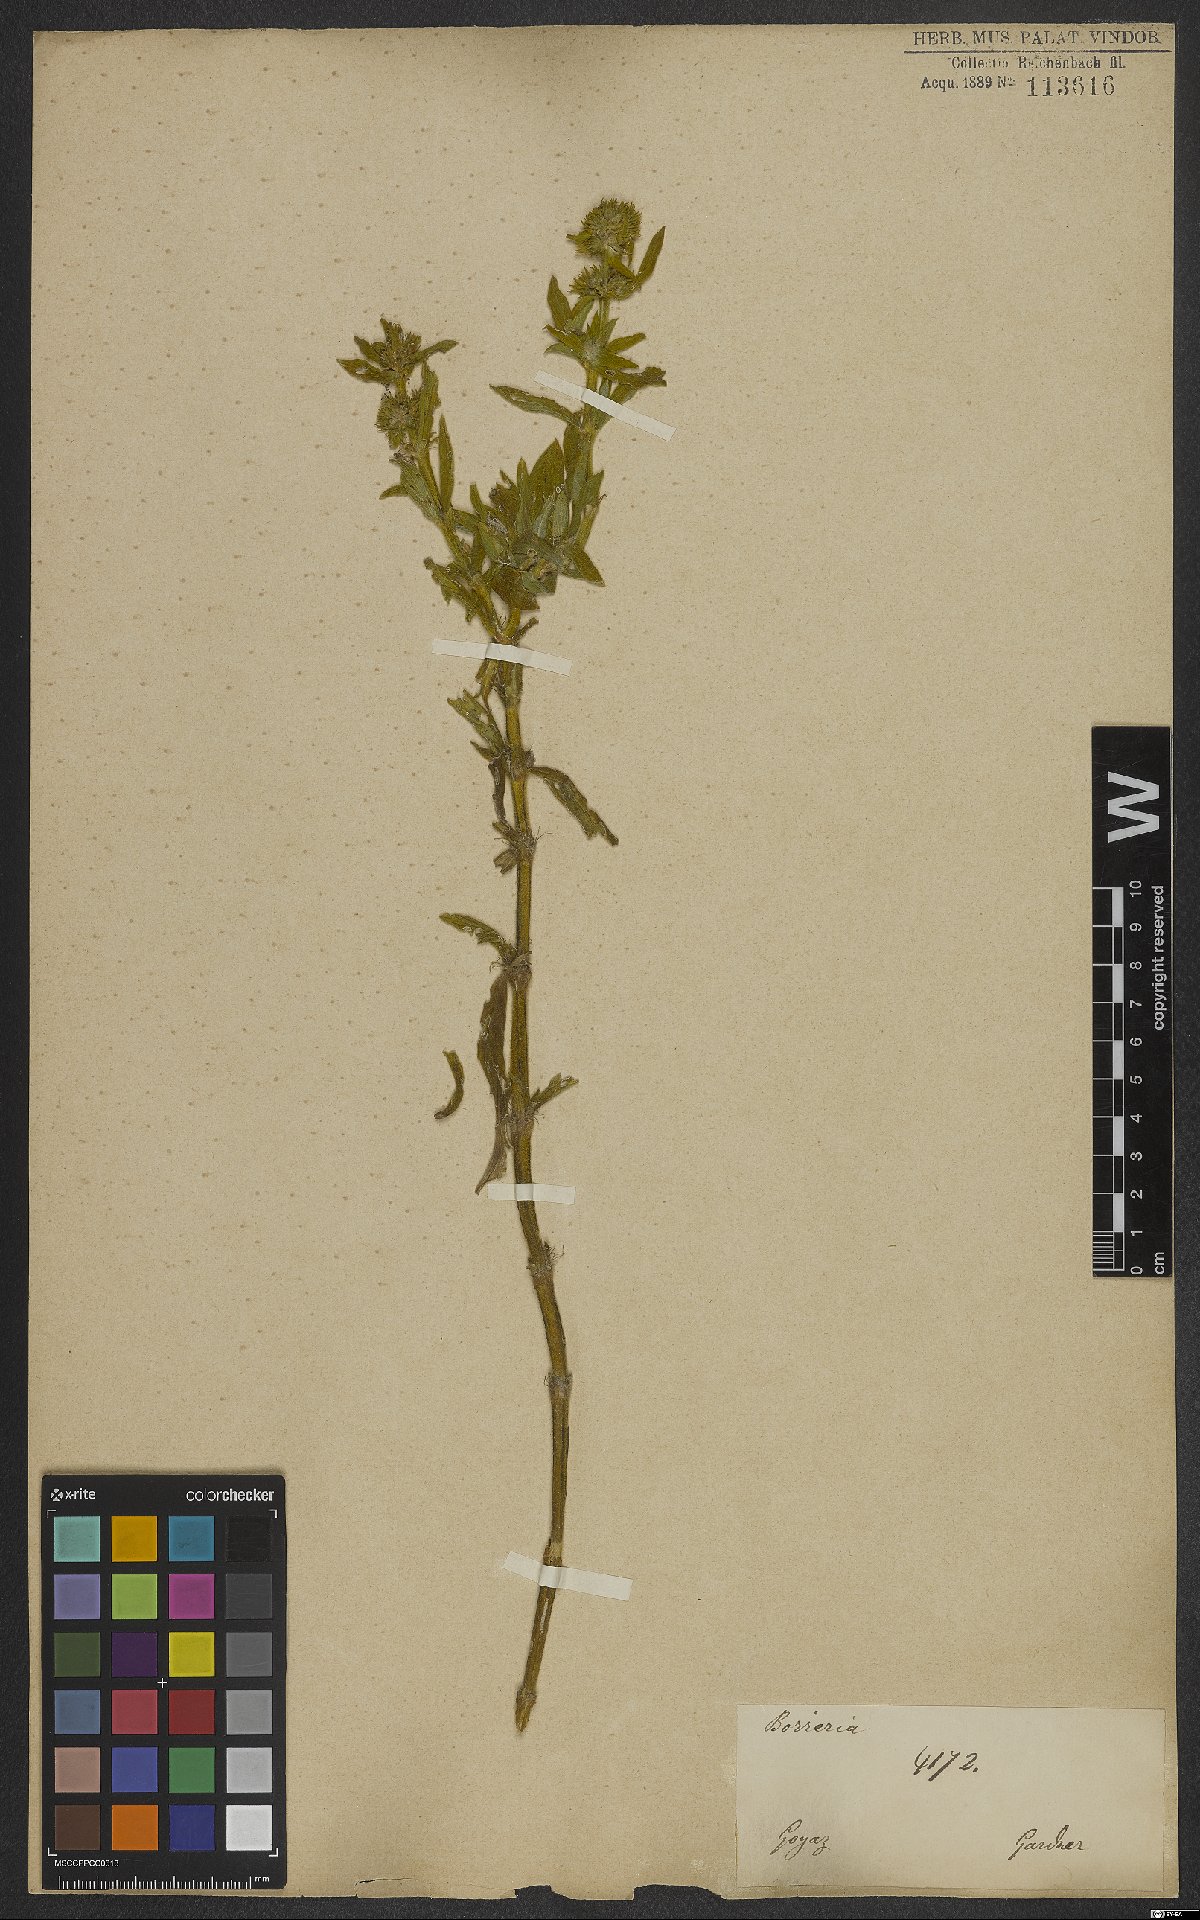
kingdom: Plantae
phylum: Tracheophyta
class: Magnoliopsida
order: Gentianales
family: Rubiaceae
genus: Spermacoce
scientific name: Spermacoce poaya
